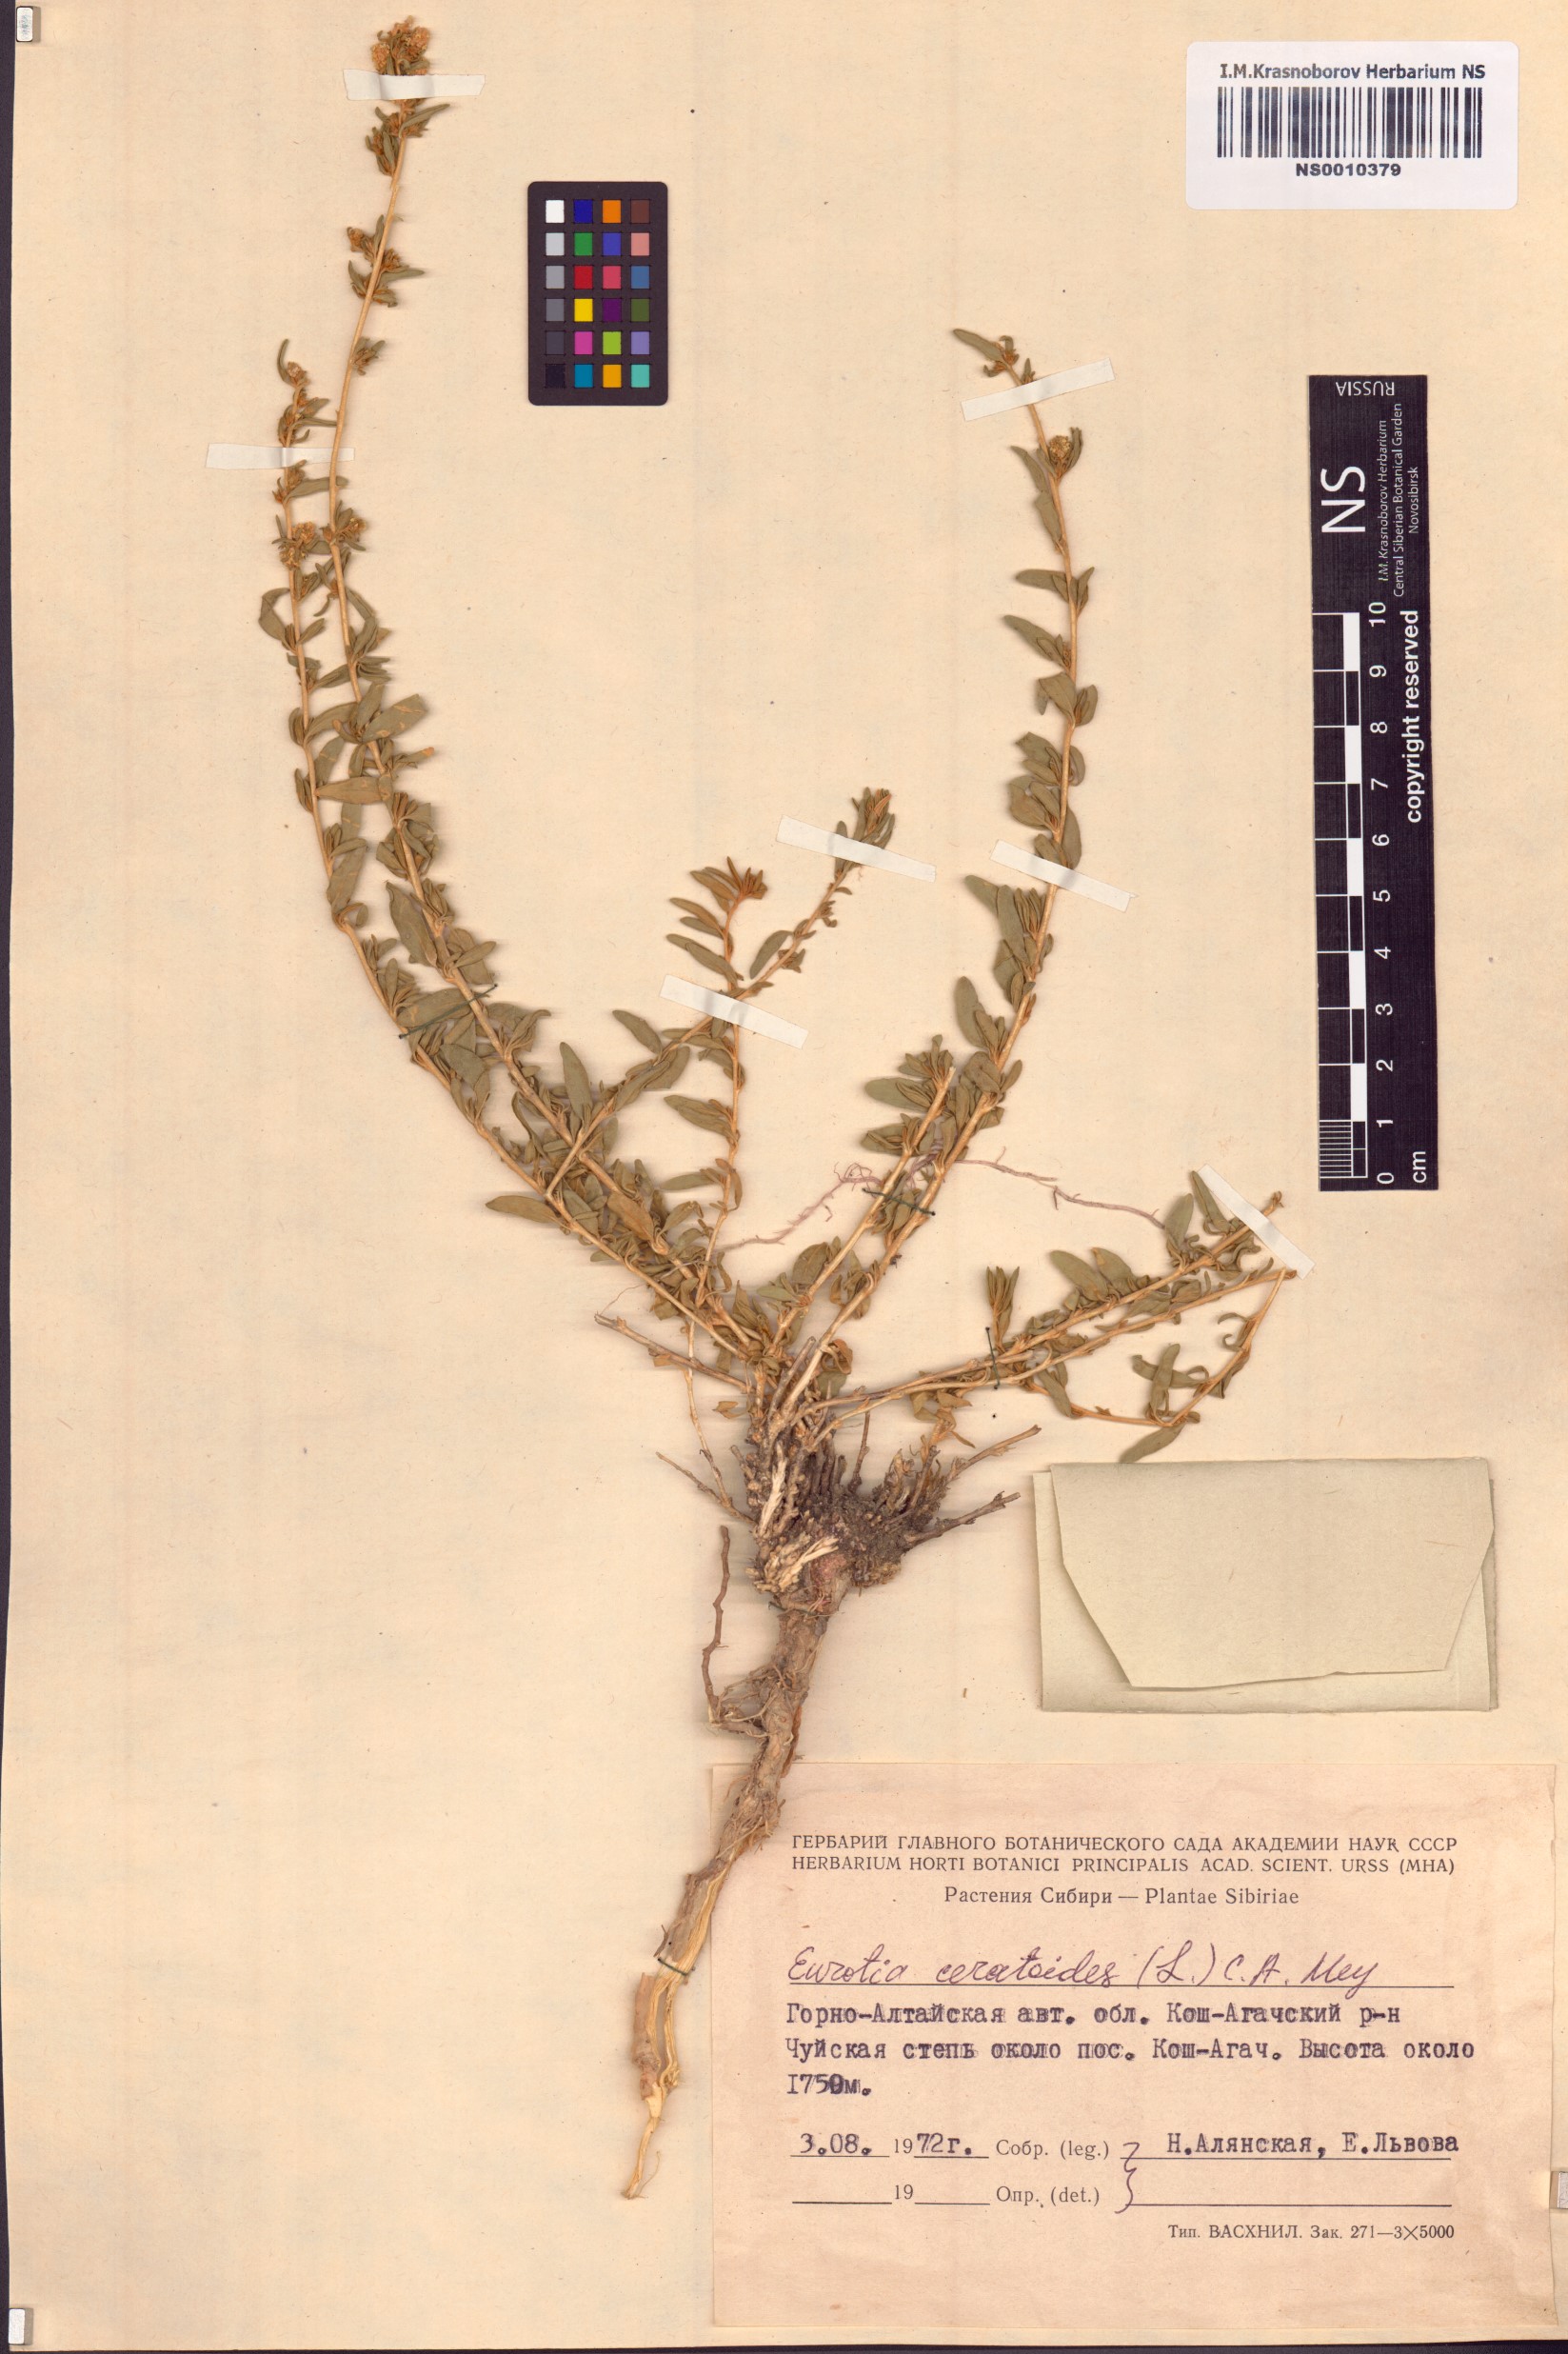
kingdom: Plantae
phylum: Tracheophyta
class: Magnoliopsida
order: Caryophyllales
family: Amaranthaceae
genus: Krascheninnikovia
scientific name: Krascheninnikovia ceratoides
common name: Pamirian winterfat
